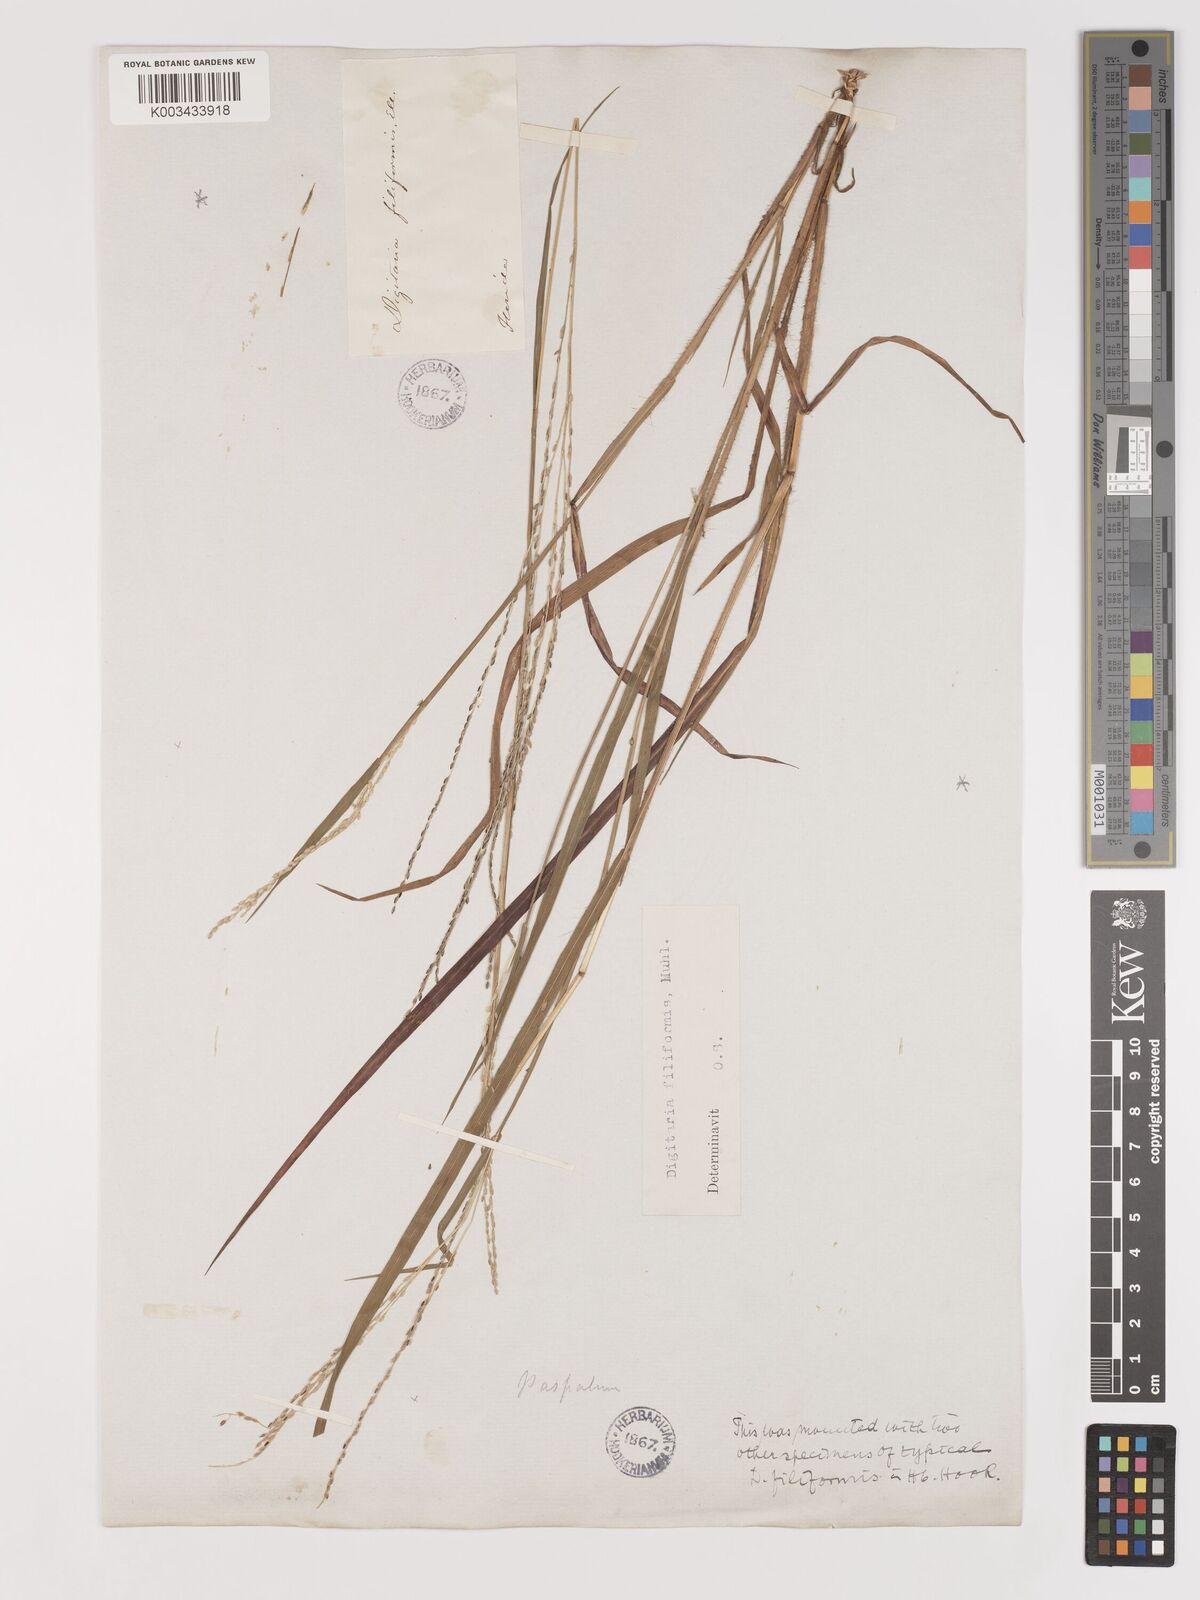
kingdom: Plantae
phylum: Tracheophyta
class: Liliopsida
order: Poales
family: Poaceae
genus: Digitaria
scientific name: Digitaria filiformis
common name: Slender crabgrass
